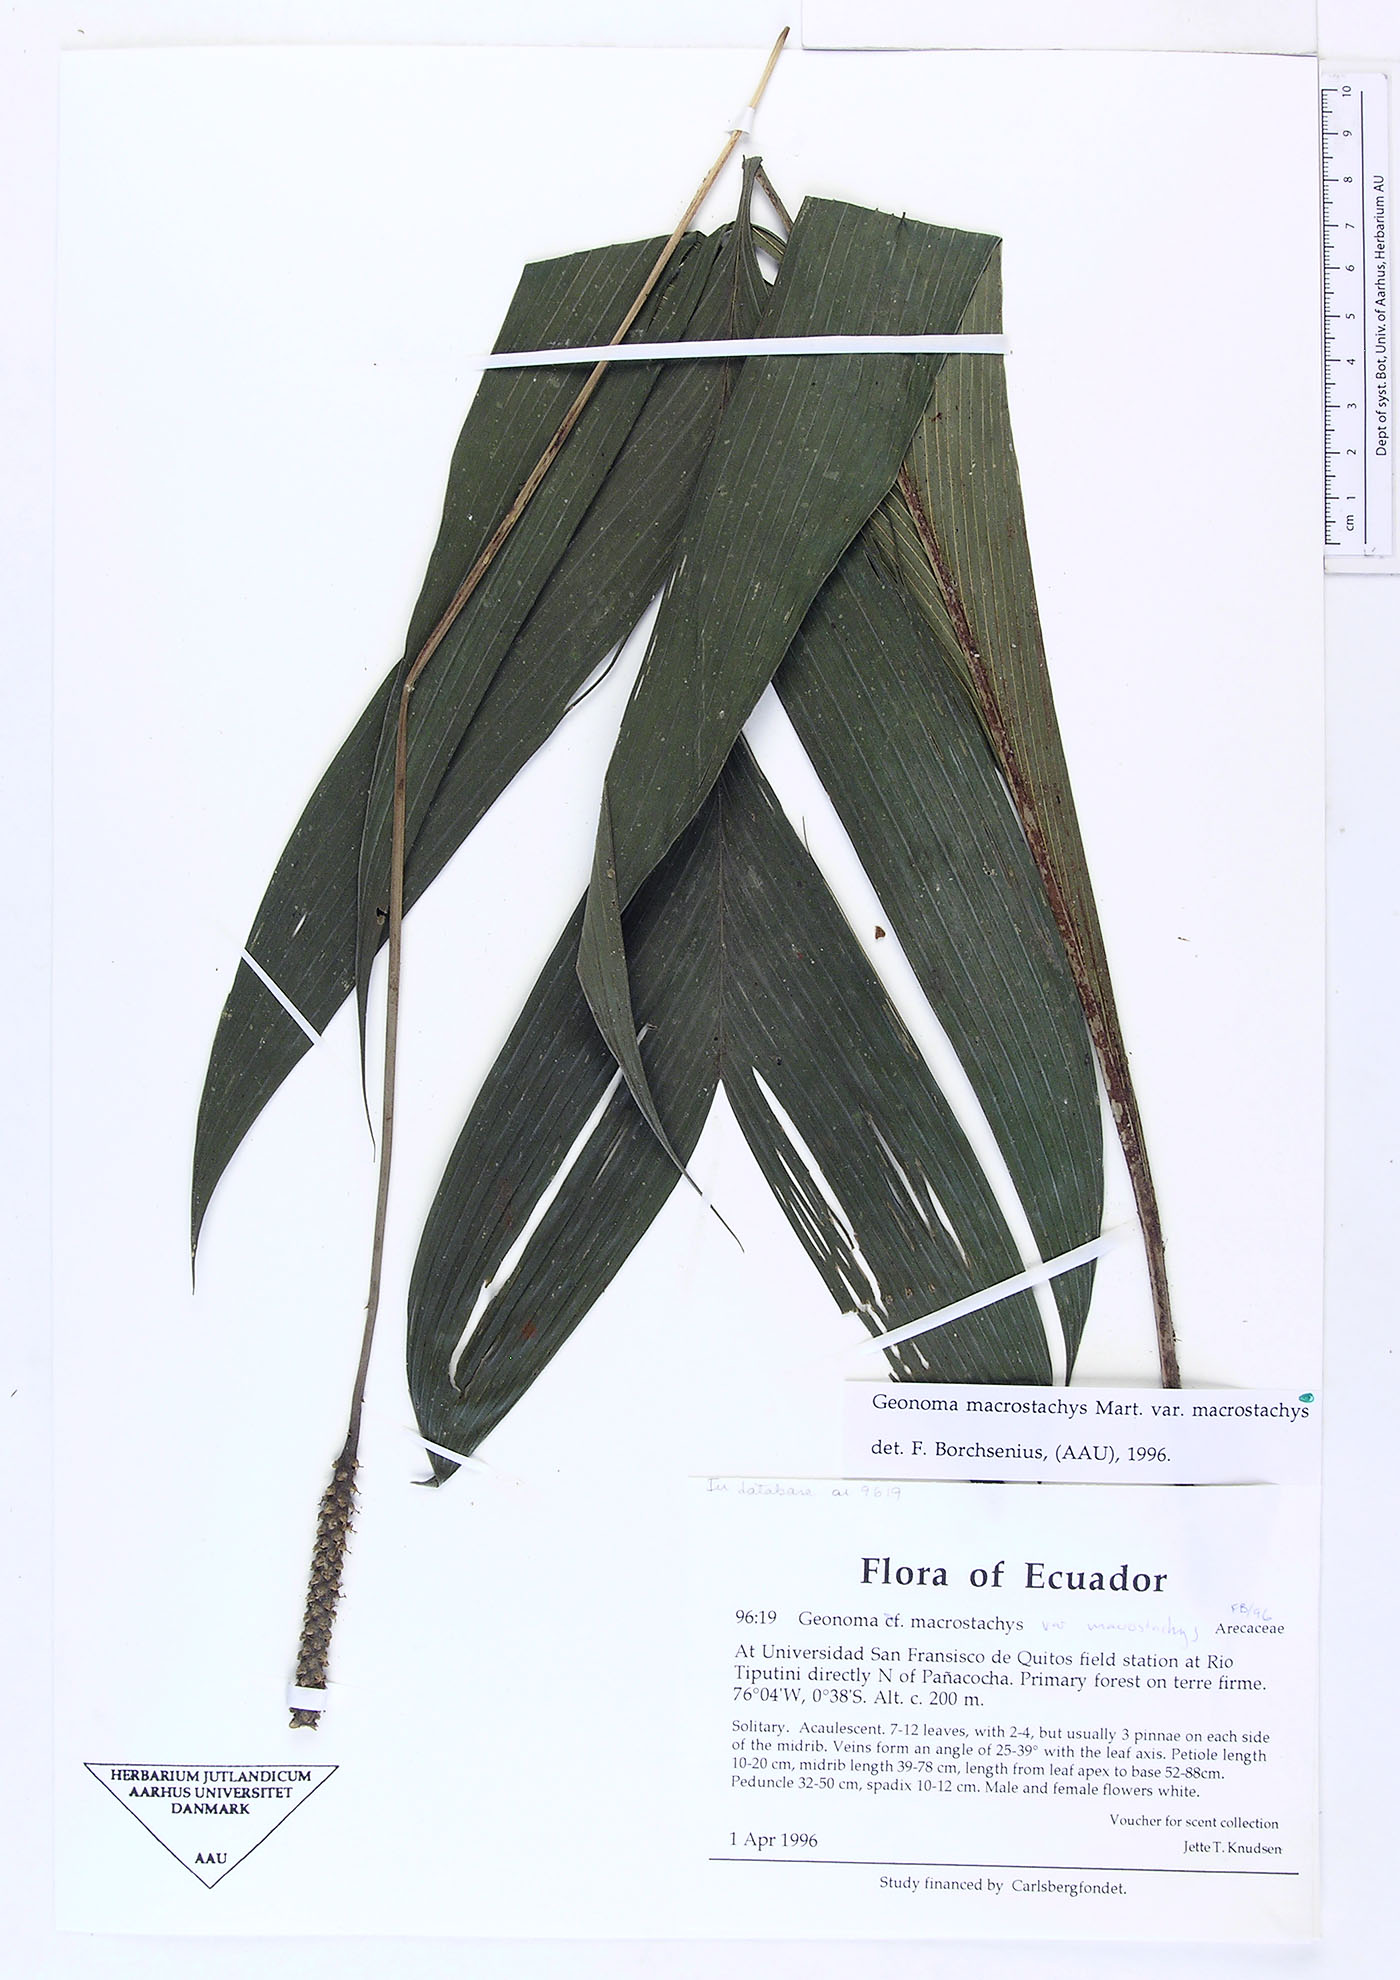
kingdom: Plantae
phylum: Tracheophyta
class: Liliopsida
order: Arecales
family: Arecaceae
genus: Geonoma
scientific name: Geonoma macrostachys
